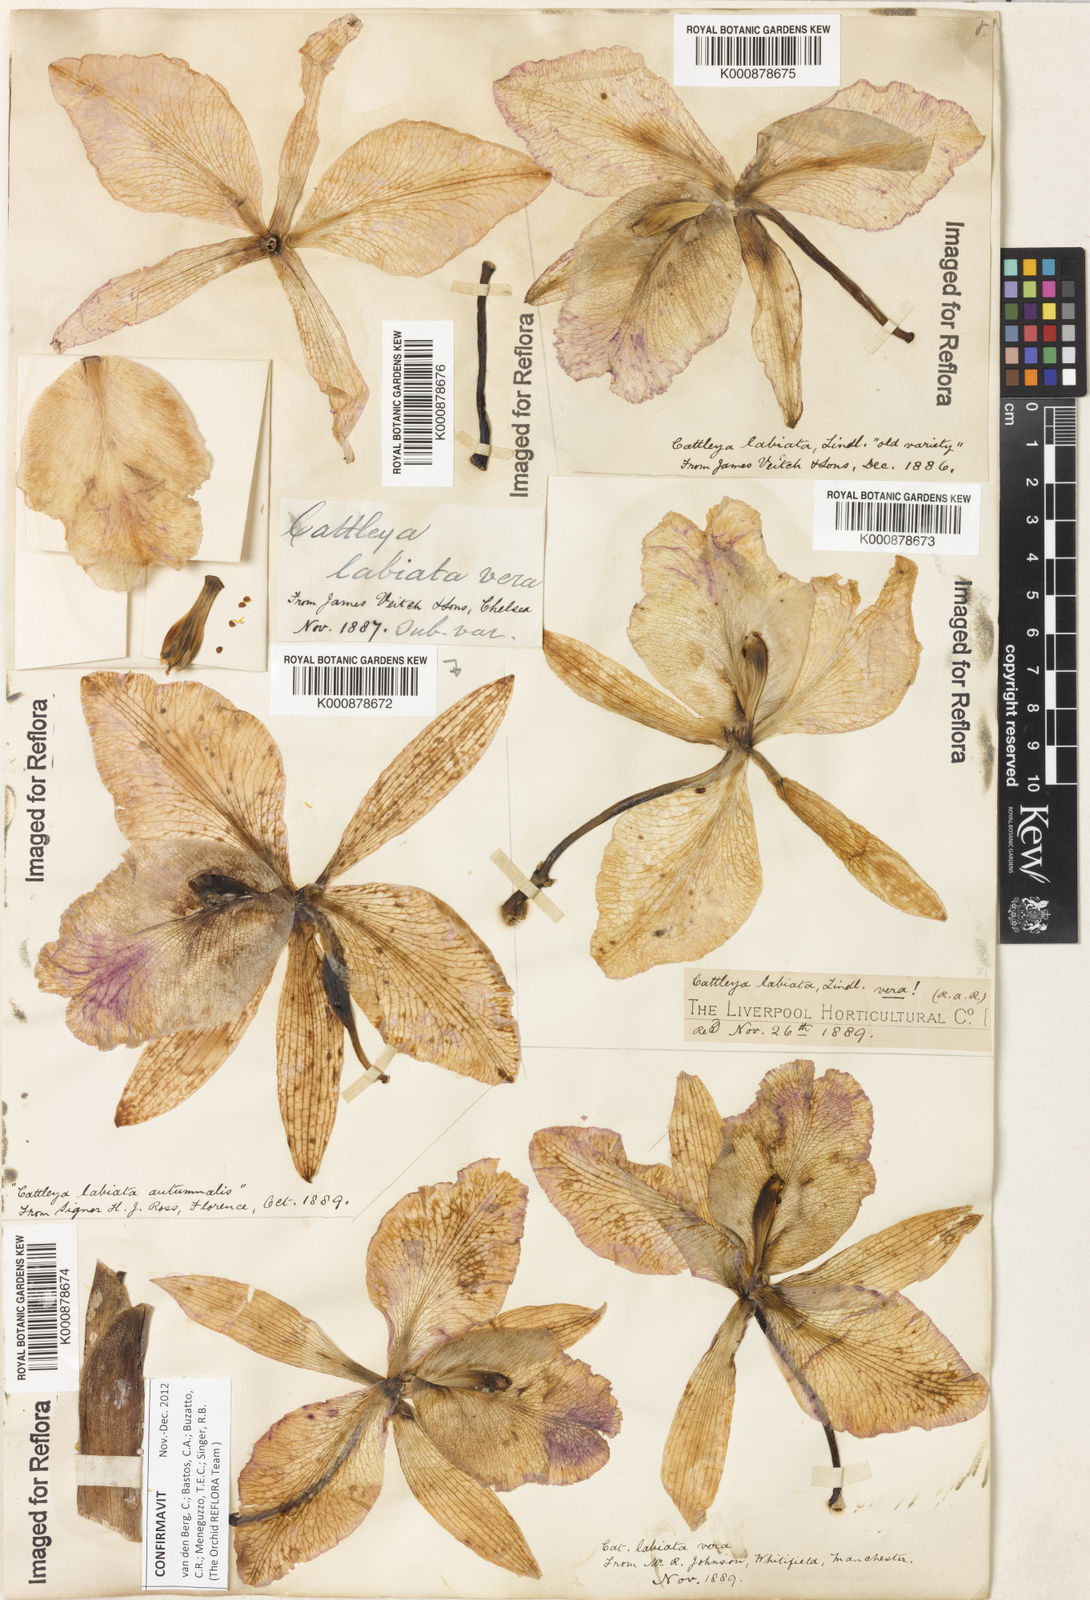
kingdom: Plantae
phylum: Tracheophyta
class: Liliopsida
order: Asparagales
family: Orchidaceae
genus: Cattleya
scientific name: Cattleya labiata
